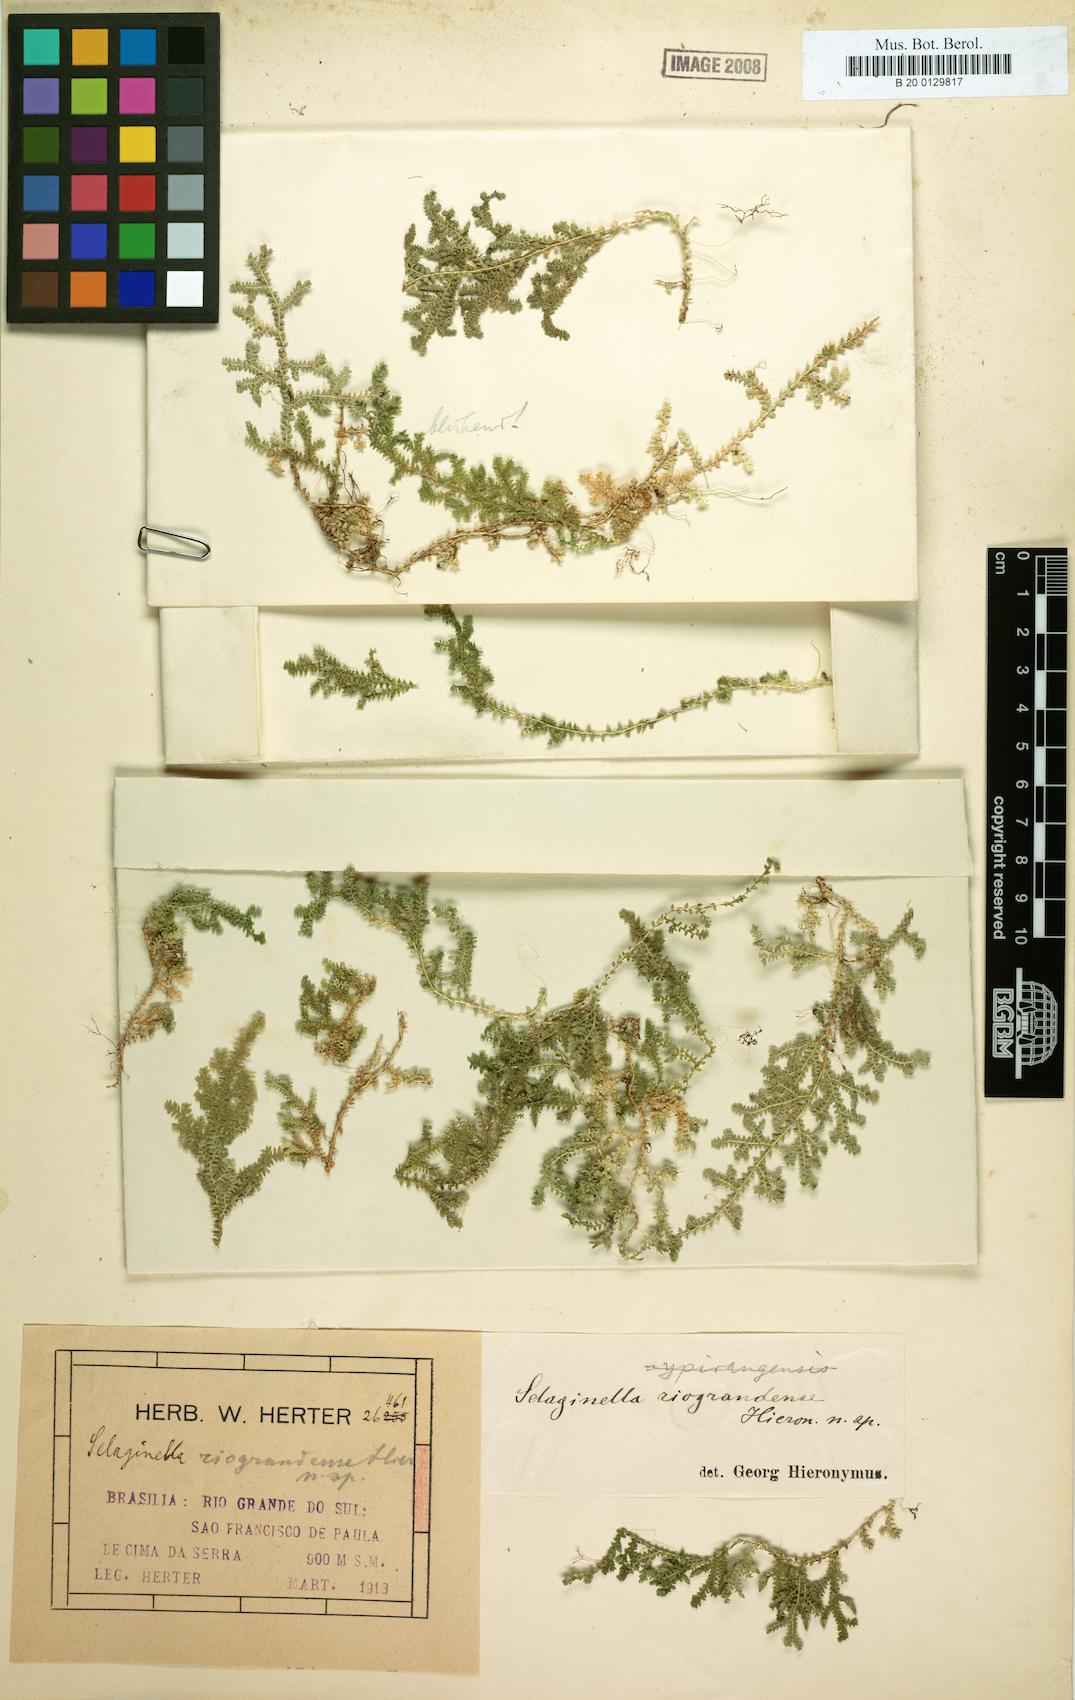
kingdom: Plantae
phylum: Tracheophyta
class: Lycopodiopsida
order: Selaginellales
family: Selaginellaceae
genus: Selaginella
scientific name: Selaginella marginata
